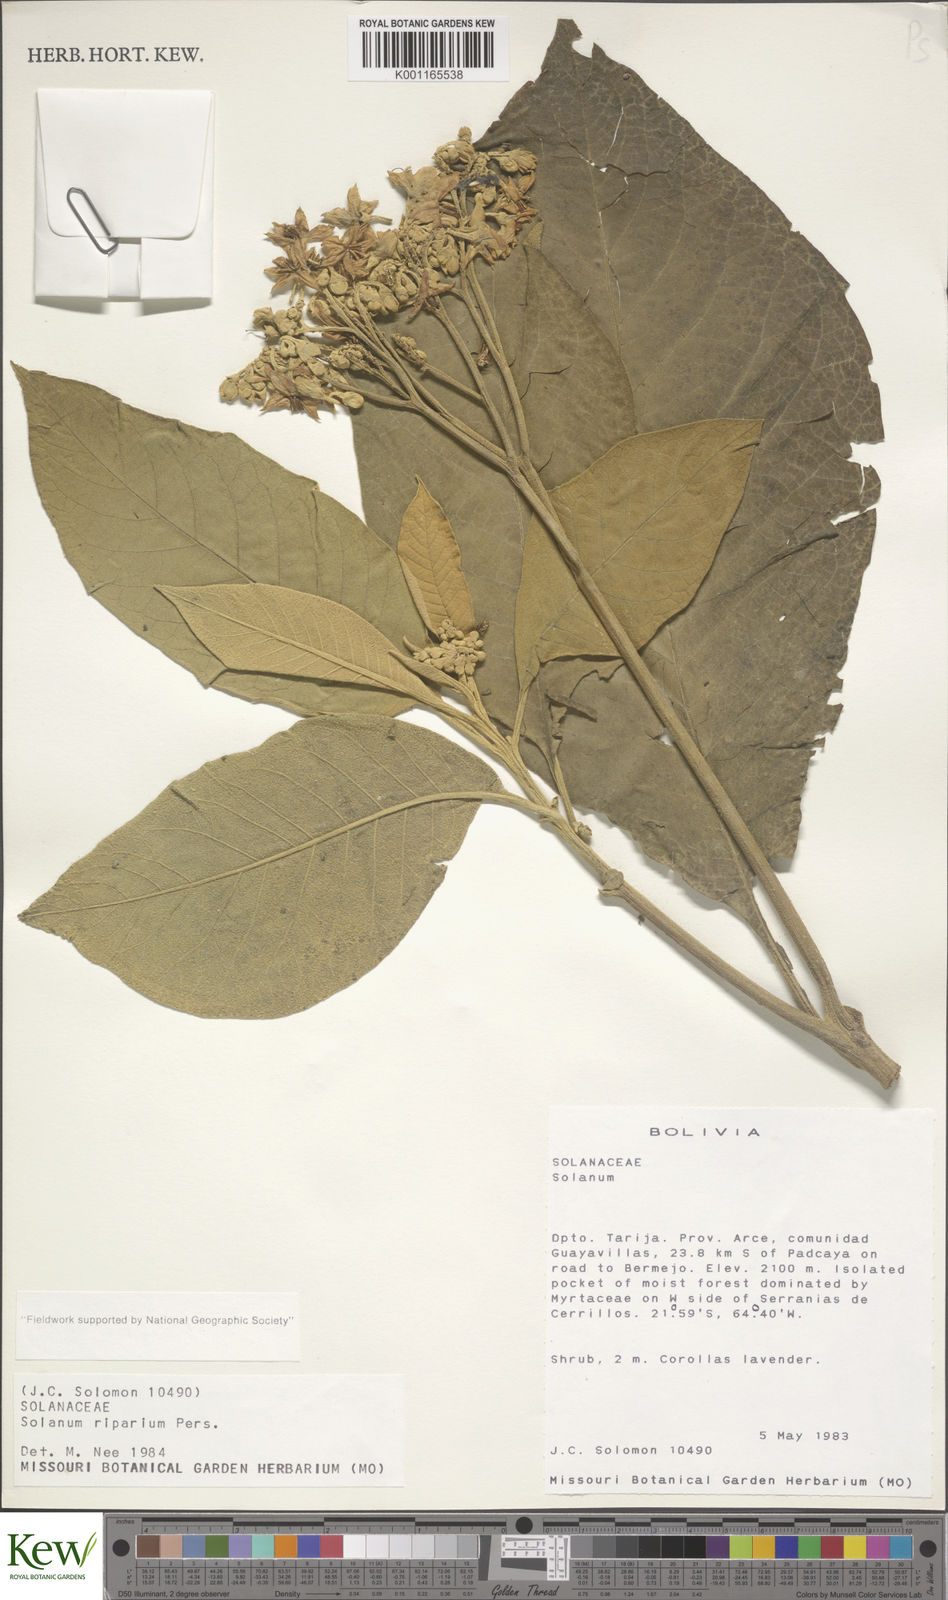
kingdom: Plantae
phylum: Tracheophyta
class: Magnoliopsida
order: Solanales
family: Solanaceae
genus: Solanum
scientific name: Solanum riparium
